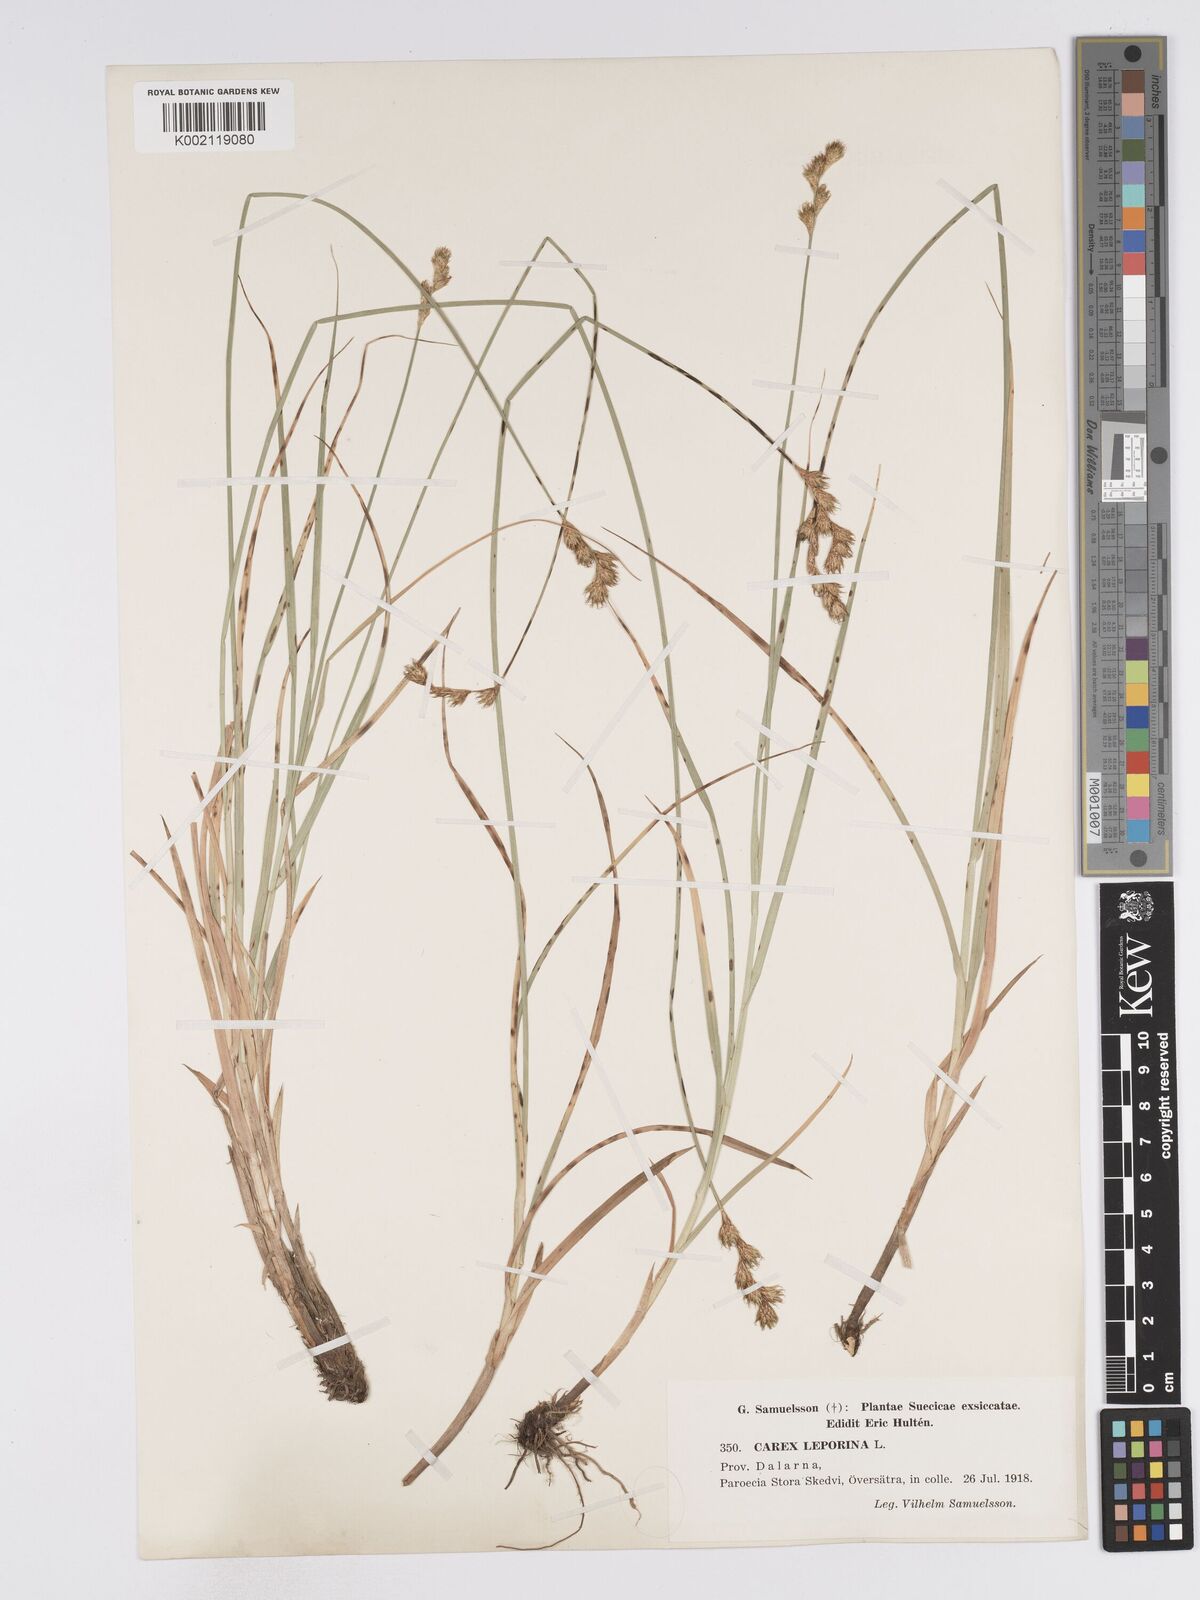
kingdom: Plantae
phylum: Tracheophyta
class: Liliopsida
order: Poales
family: Cyperaceae
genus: Carex
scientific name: Carex leporina
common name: Oval sedge
